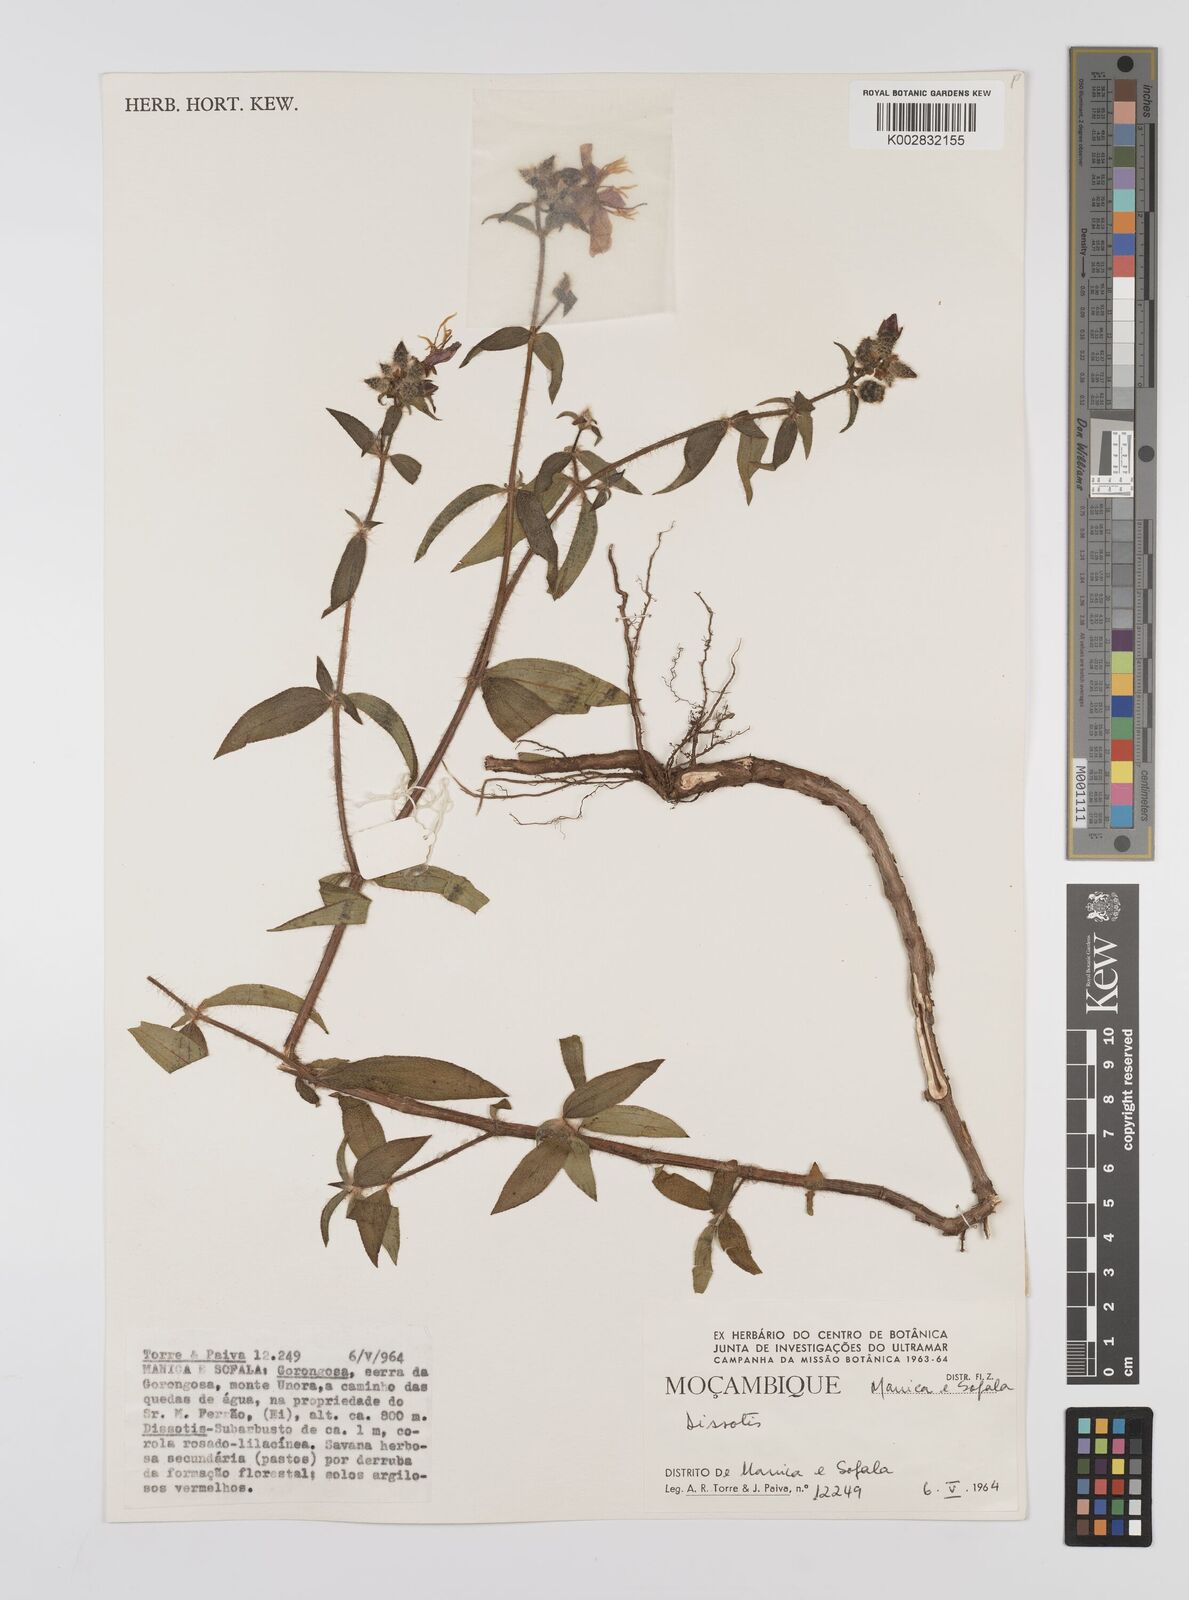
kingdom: Plantae
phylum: Tracheophyta
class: Magnoliopsida
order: Myrtales
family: Melastomataceae
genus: Nerophila
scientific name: Nerophila senegambiensis
